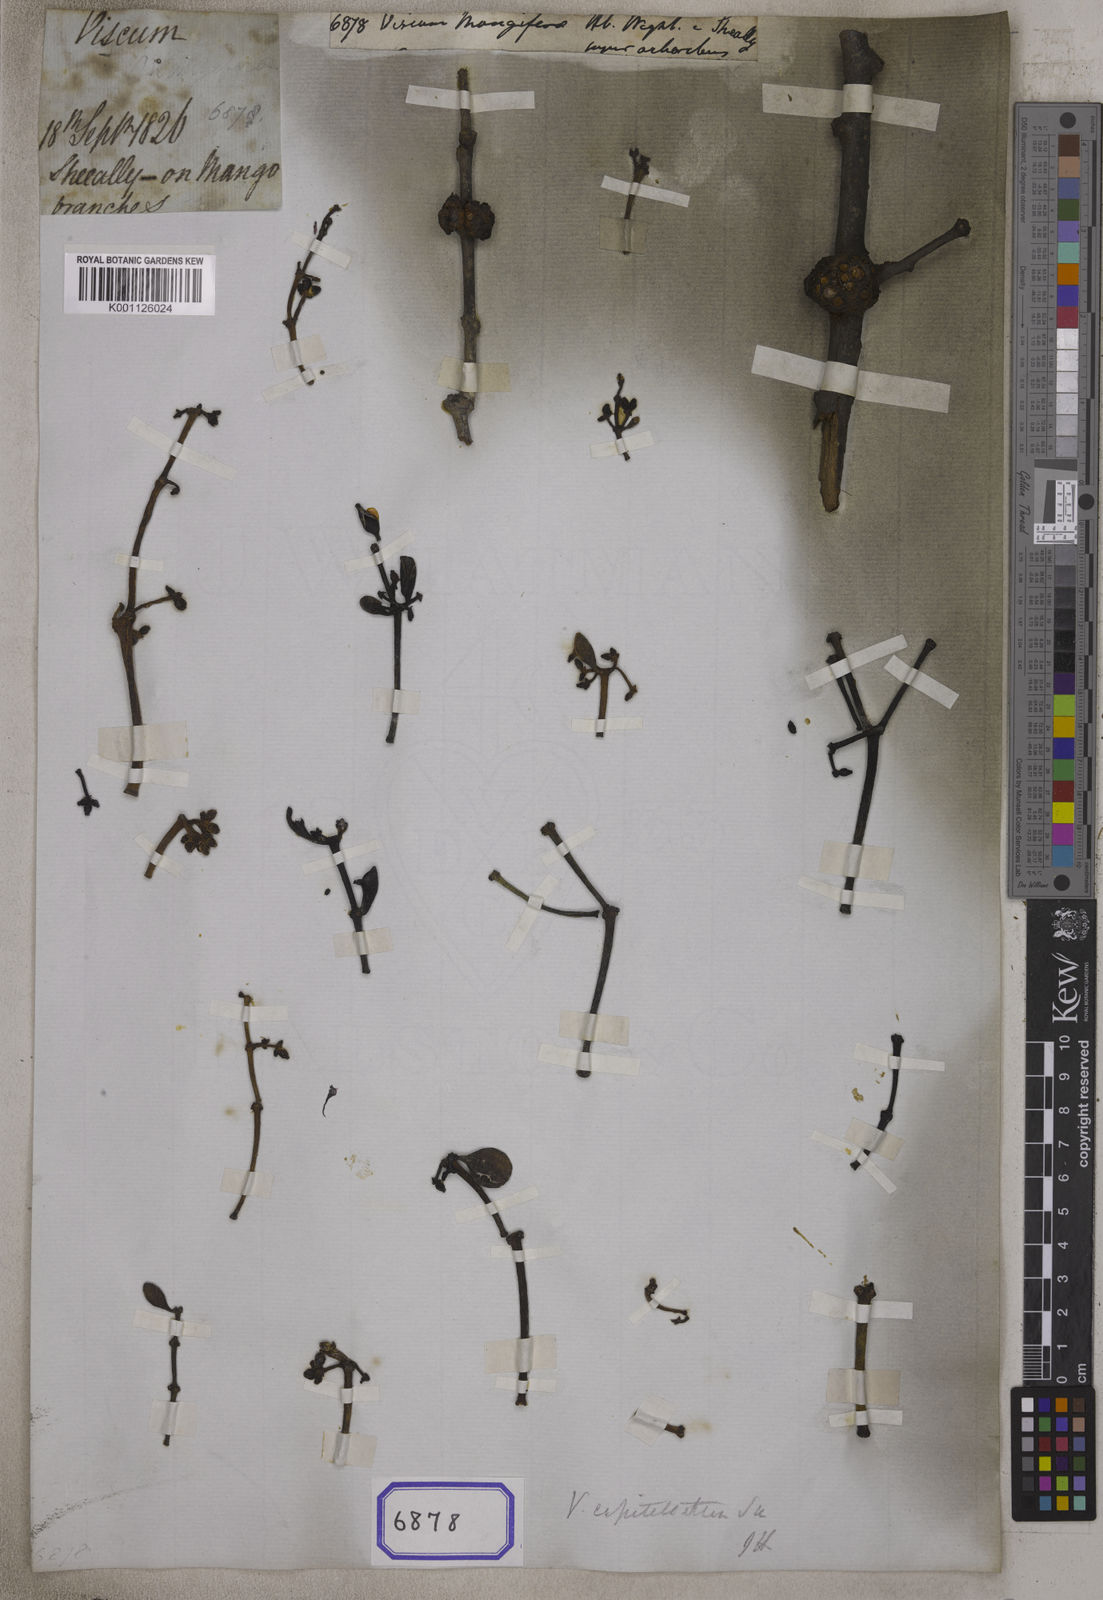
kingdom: Plantae
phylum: Tracheophyta
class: Magnoliopsida
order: Santalales
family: Viscaceae
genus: Viscum
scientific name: Viscum capitellatum
